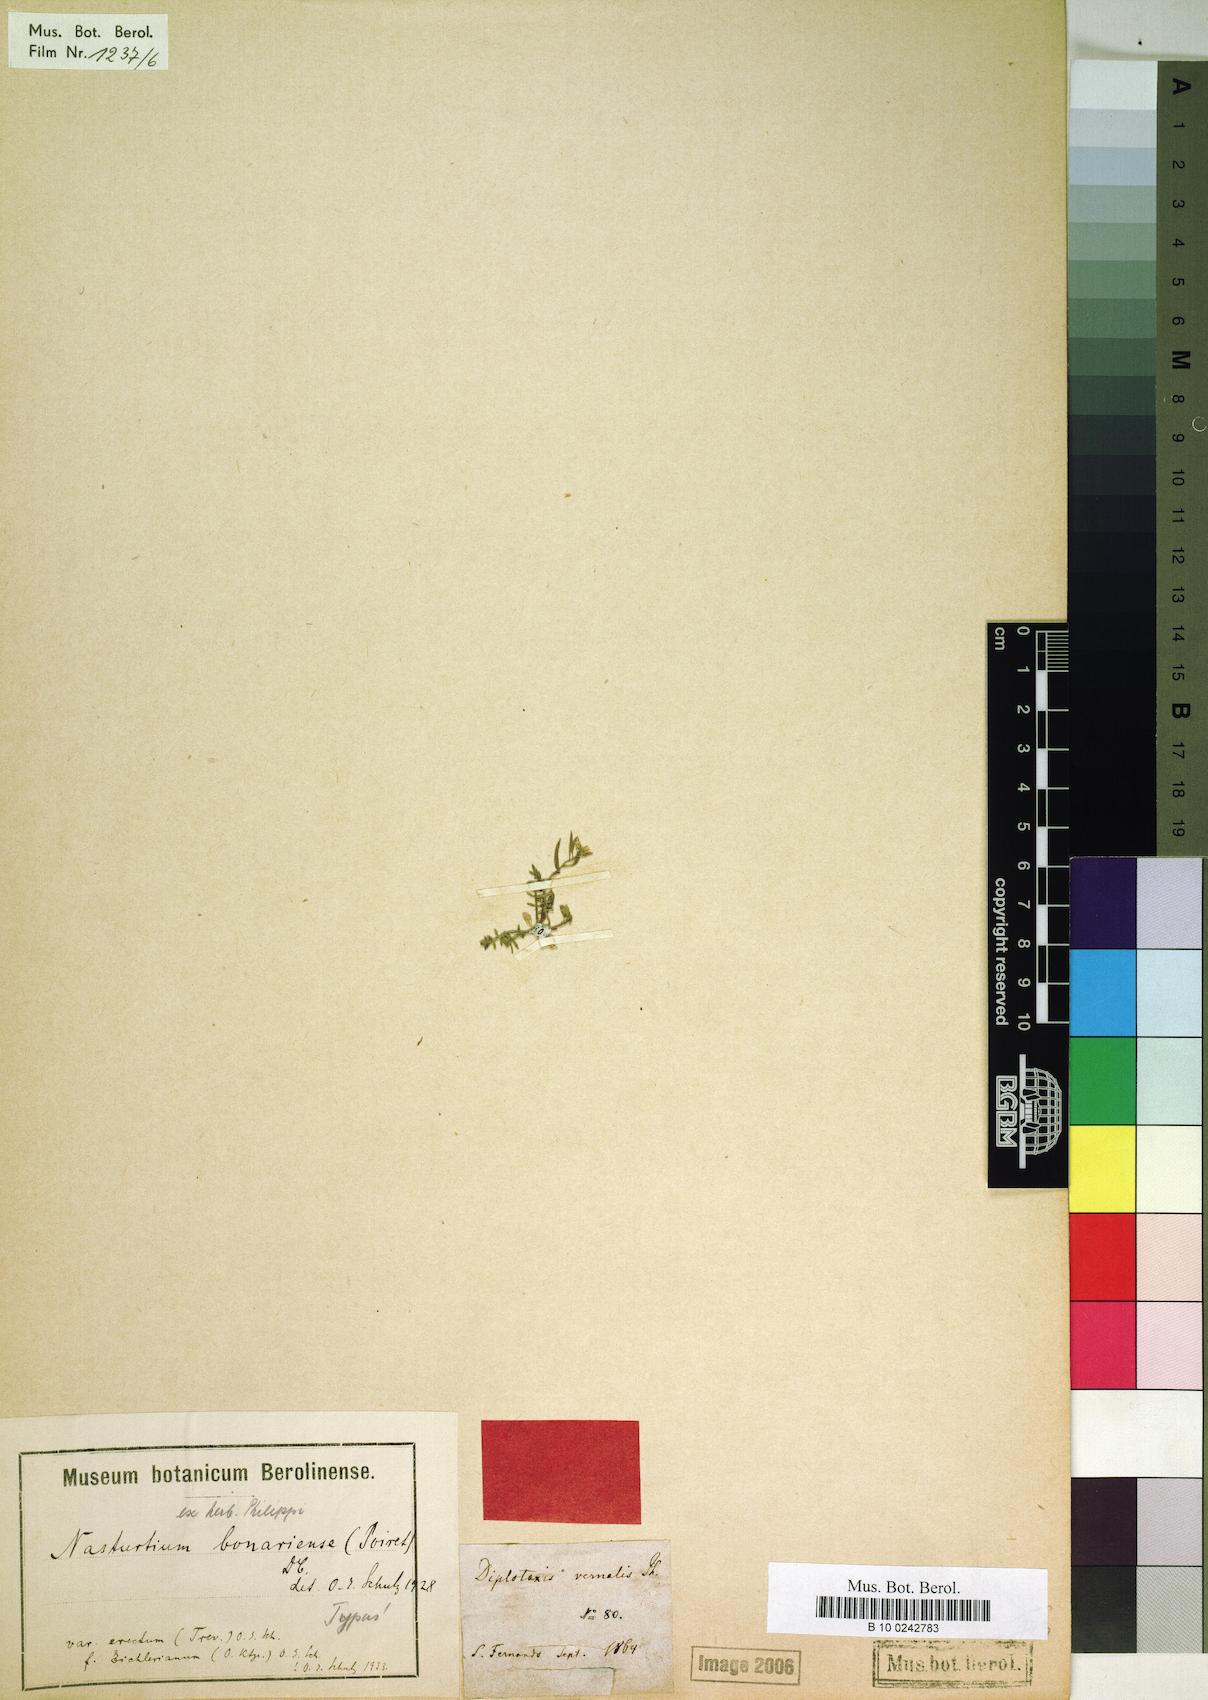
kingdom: Plantae
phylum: Tracheophyta
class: Magnoliopsida
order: Brassicales
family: Brassicaceae
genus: Rorippa
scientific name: Rorippa bonariensis
